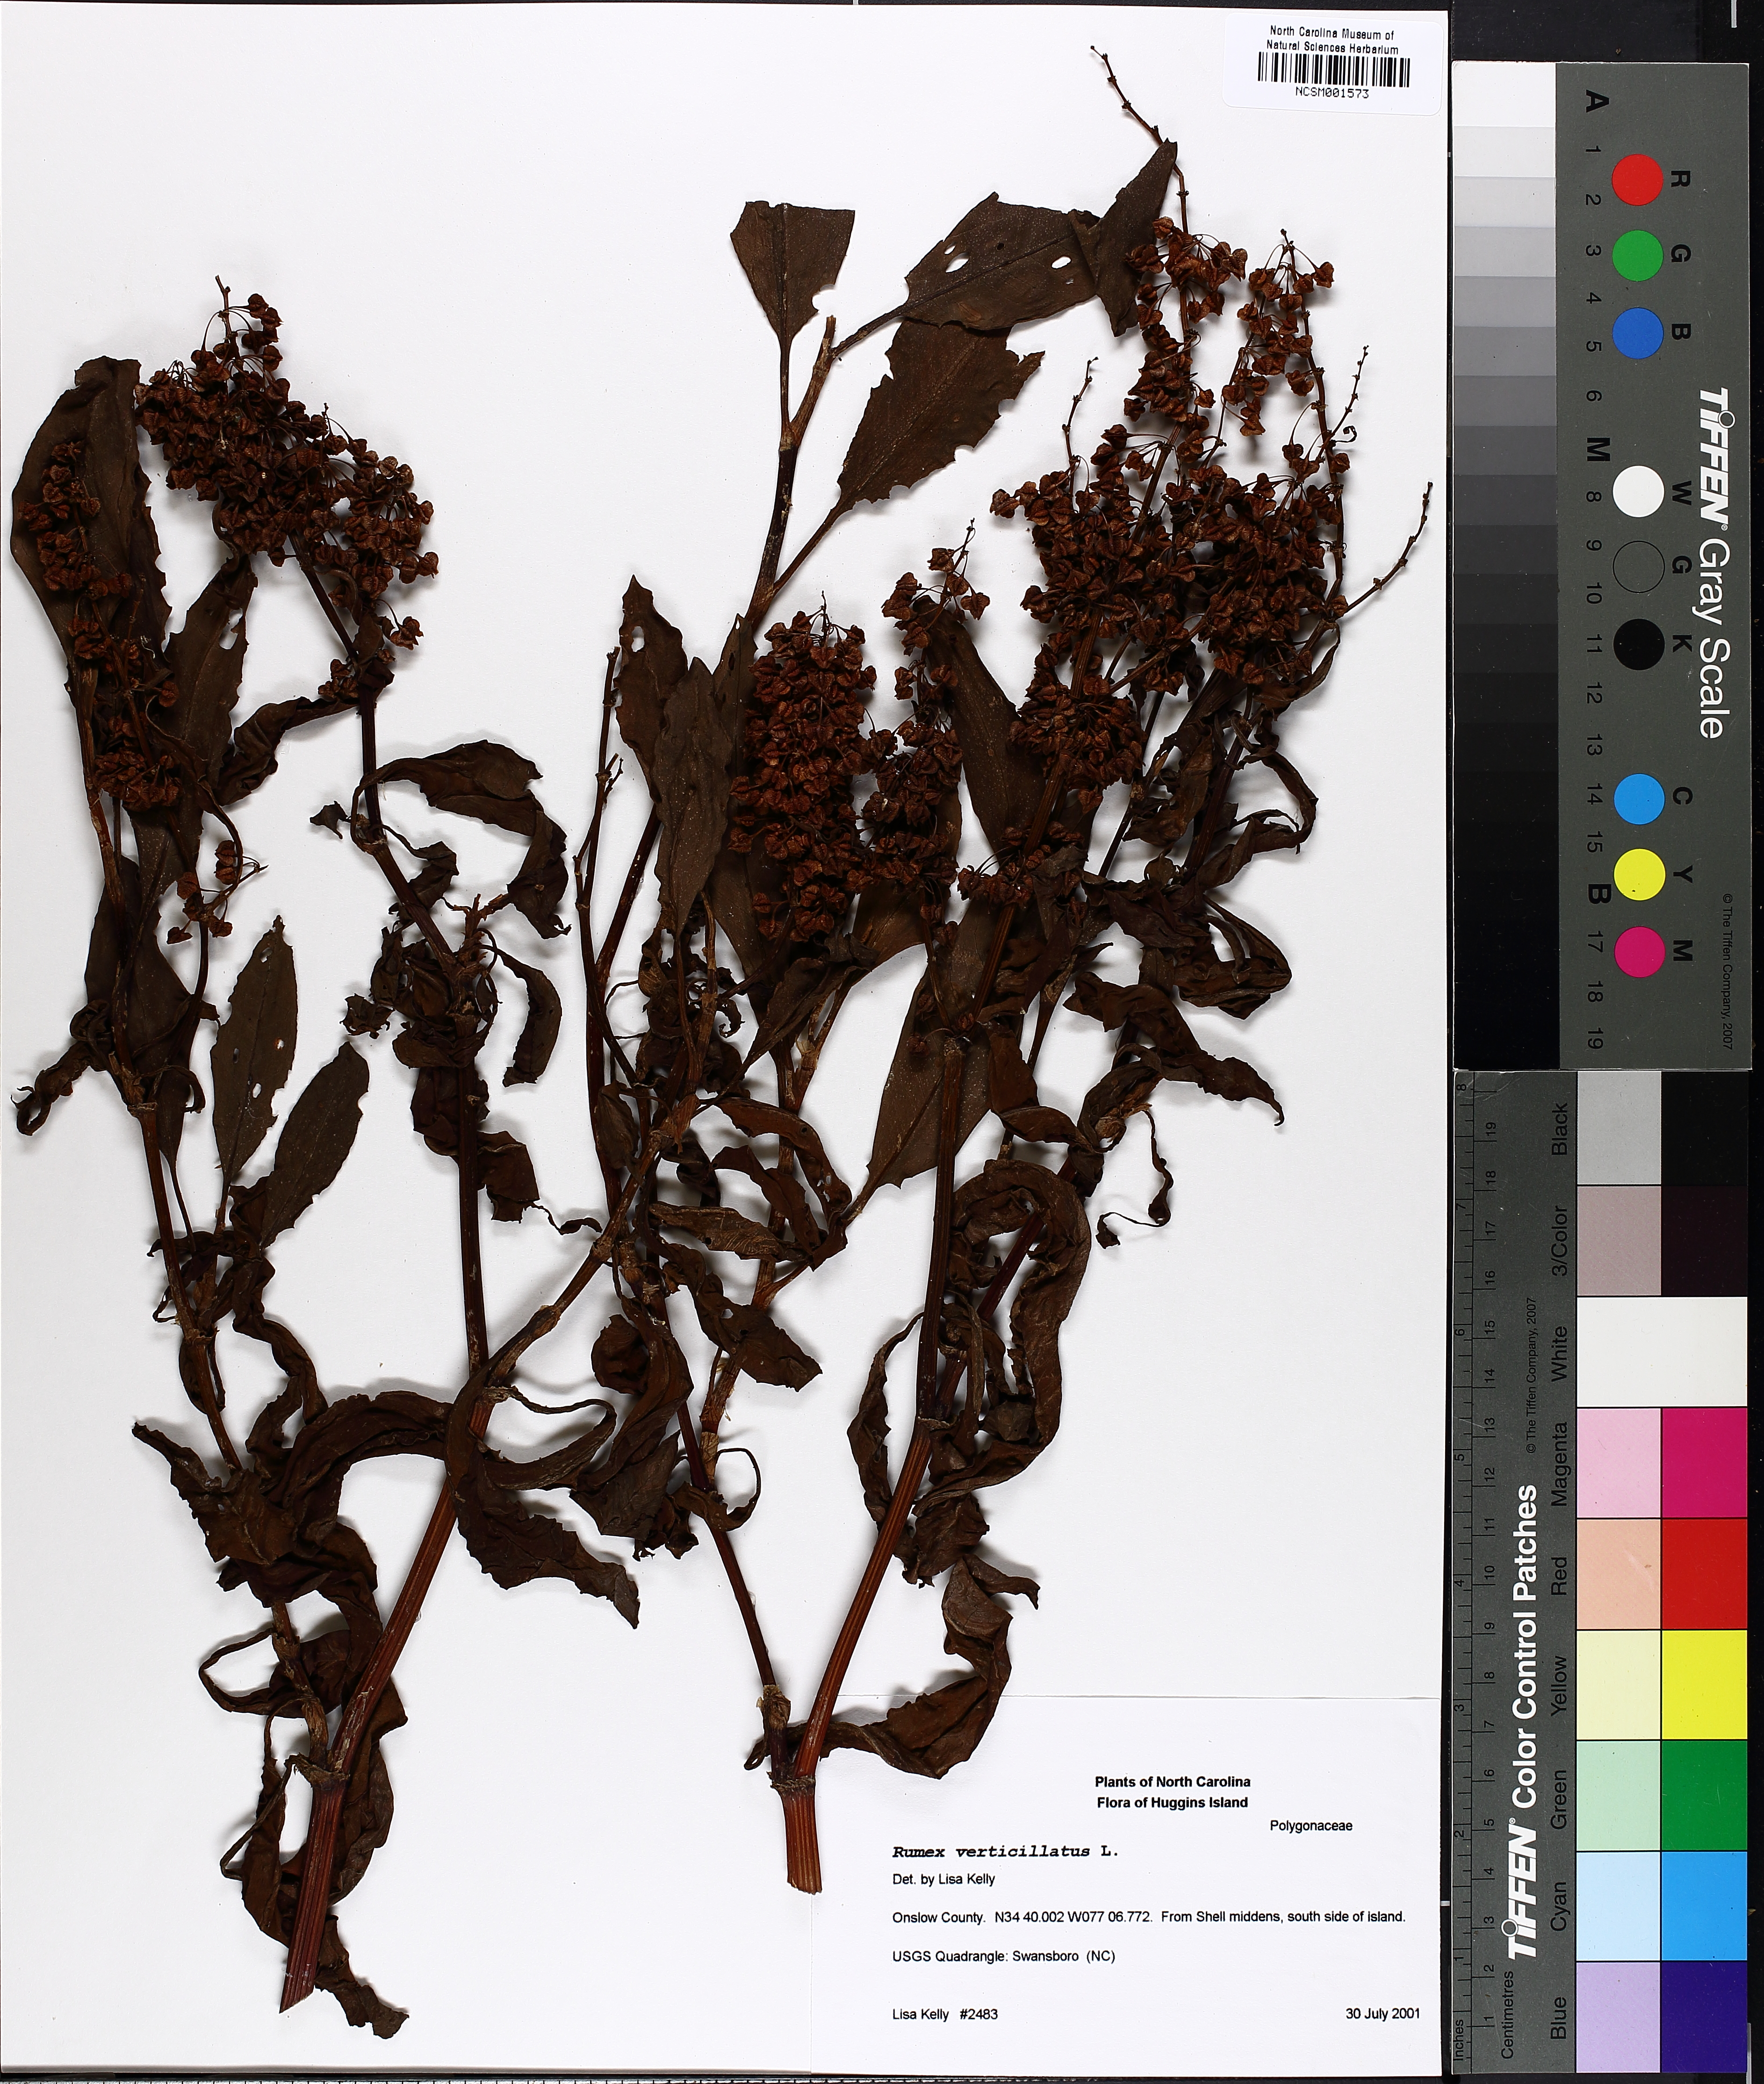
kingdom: Plantae
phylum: Tracheophyta
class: Magnoliopsida
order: Caryophyllales
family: Polygonaceae
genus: Rumex
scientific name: Rumex verticillatus
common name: Swamp dock
